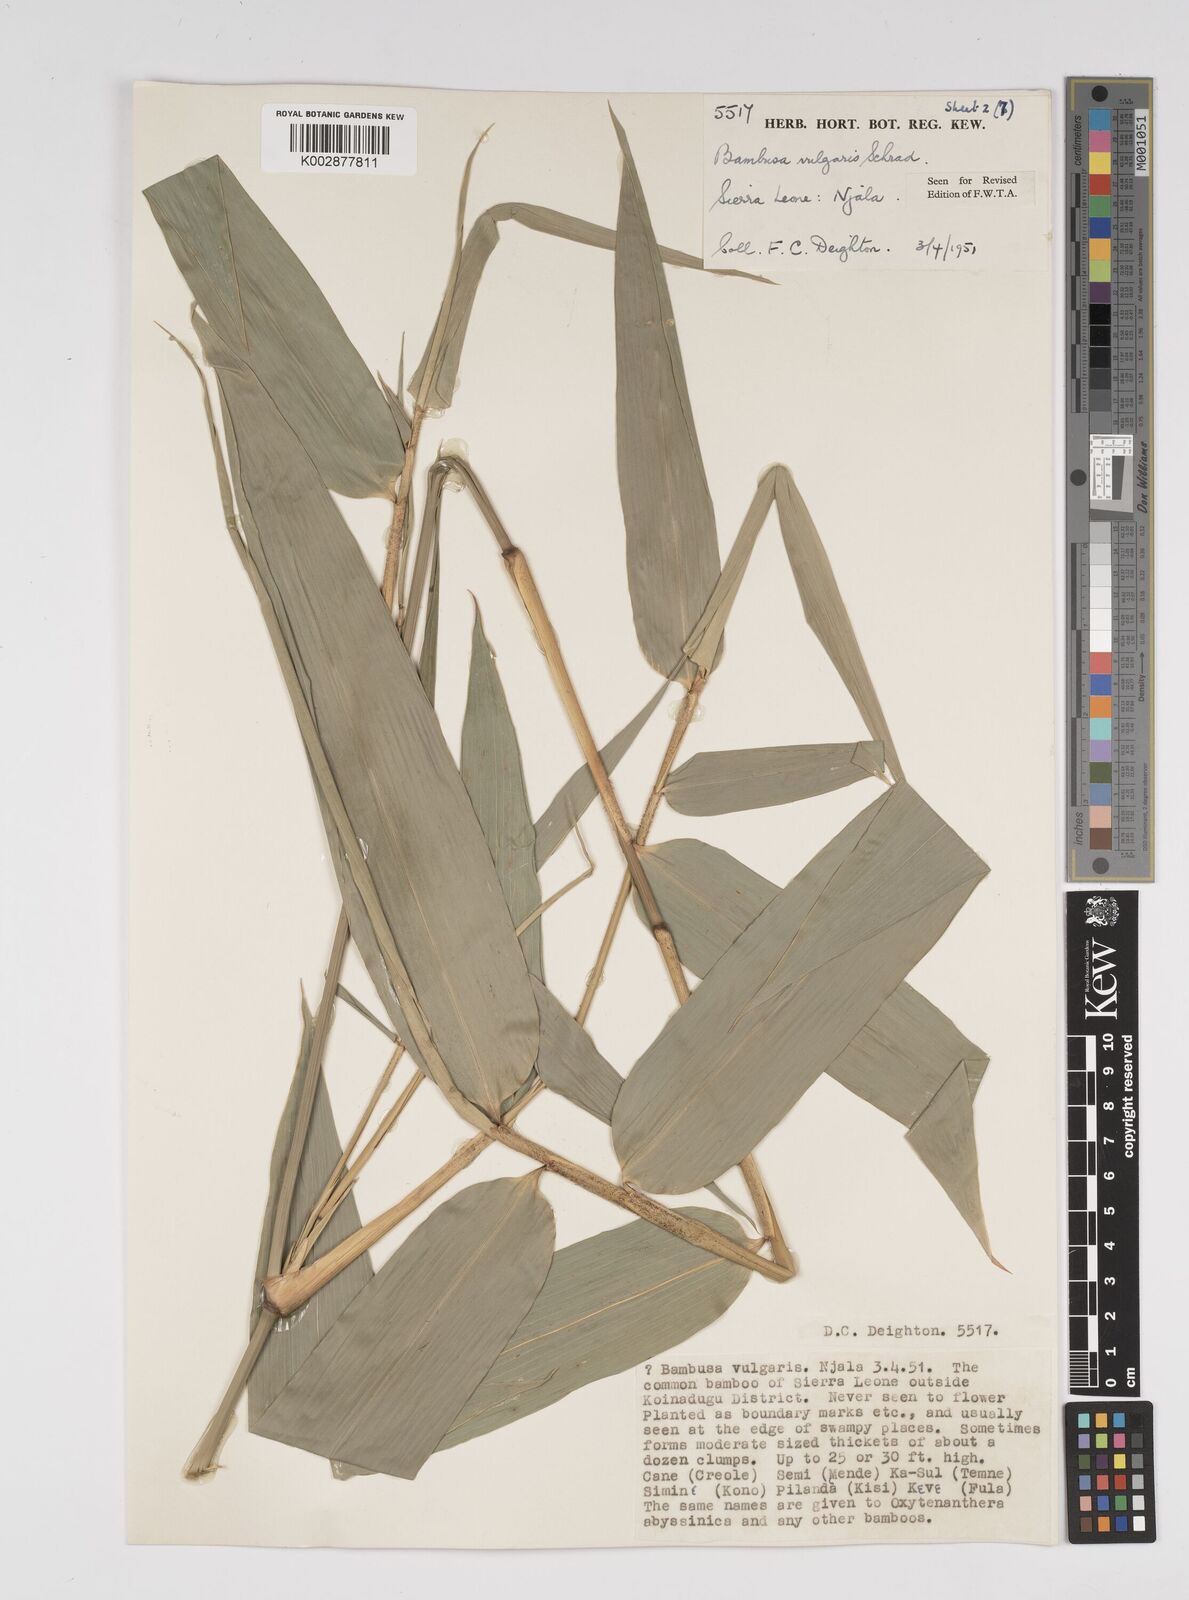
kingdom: Plantae
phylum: Tracheophyta
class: Liliopsida
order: Poales
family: Poaceae
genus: Bambusa
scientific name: Bambusa vulgaris
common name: Common bamboo
